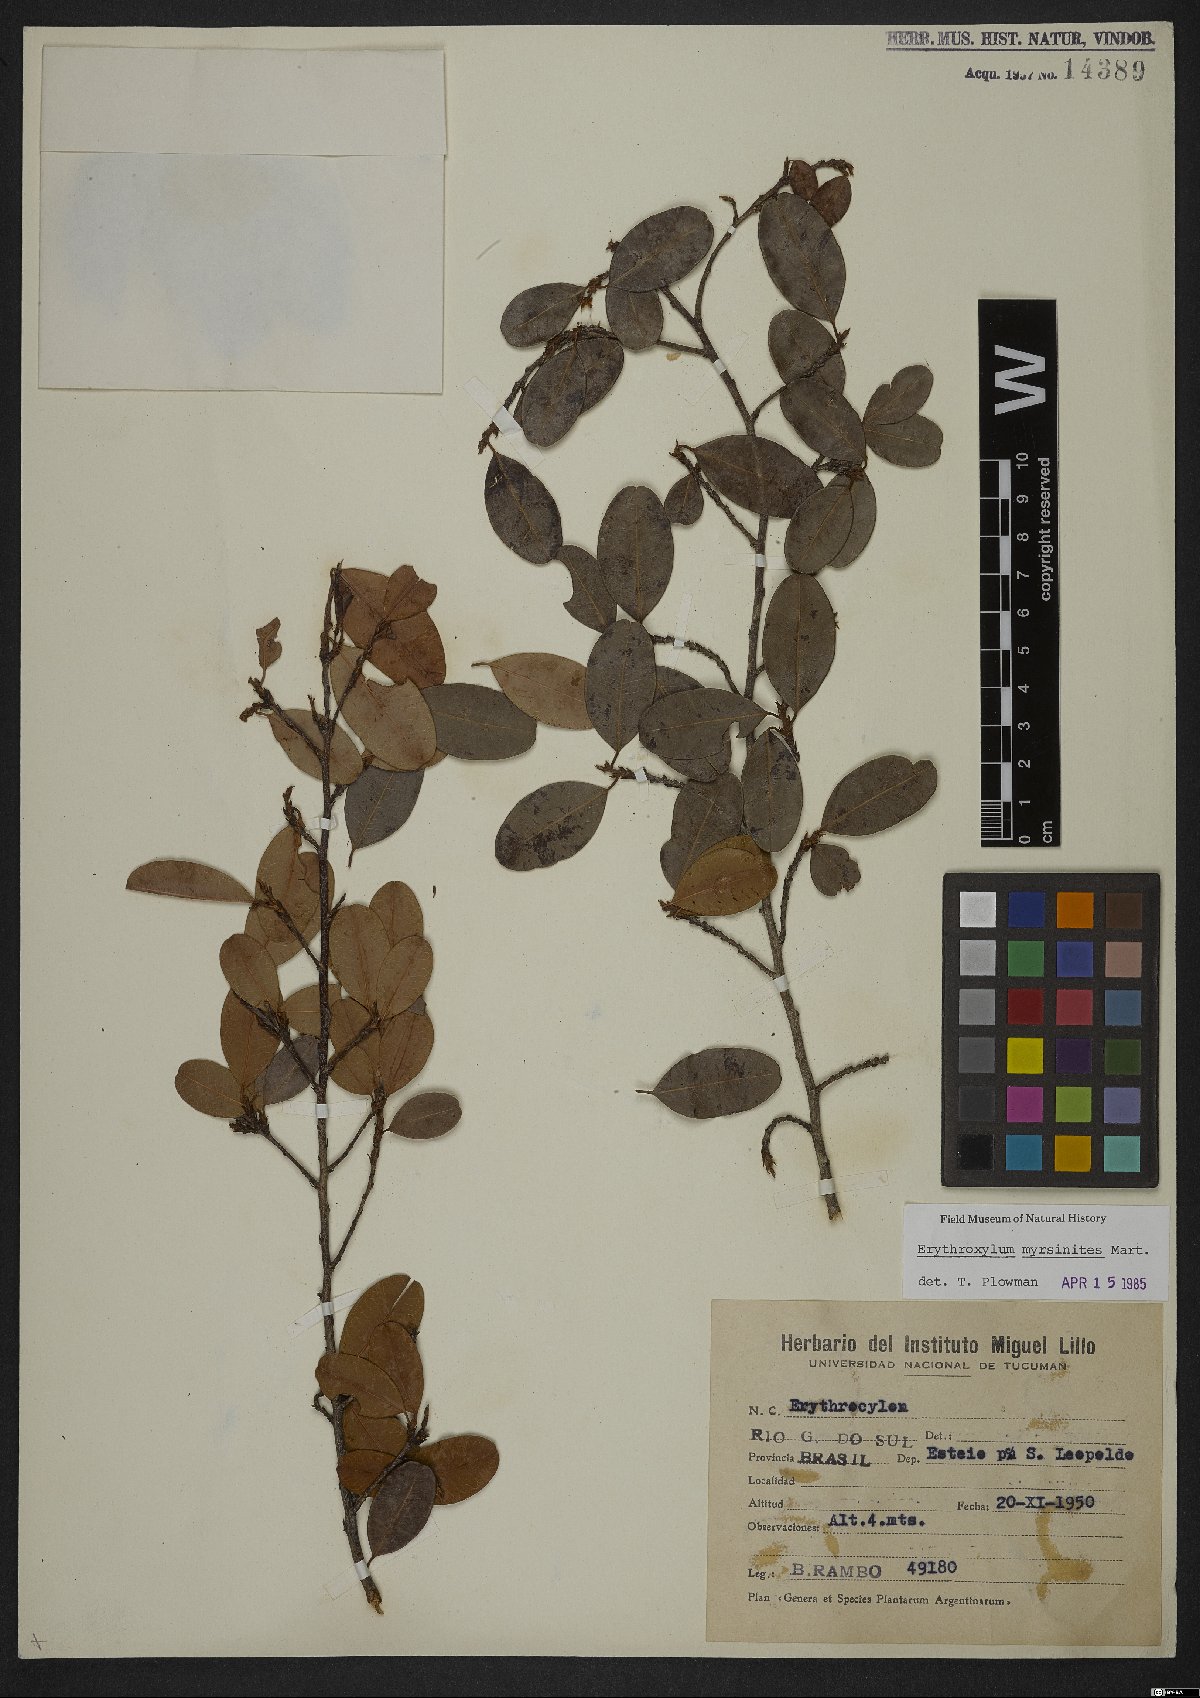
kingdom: Plantae
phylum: Tracheophyta
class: Magnoliopsida
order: Malpighiales
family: Erythroxylaceae
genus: Erythroxylum
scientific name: Erythroxylum myrsinites
